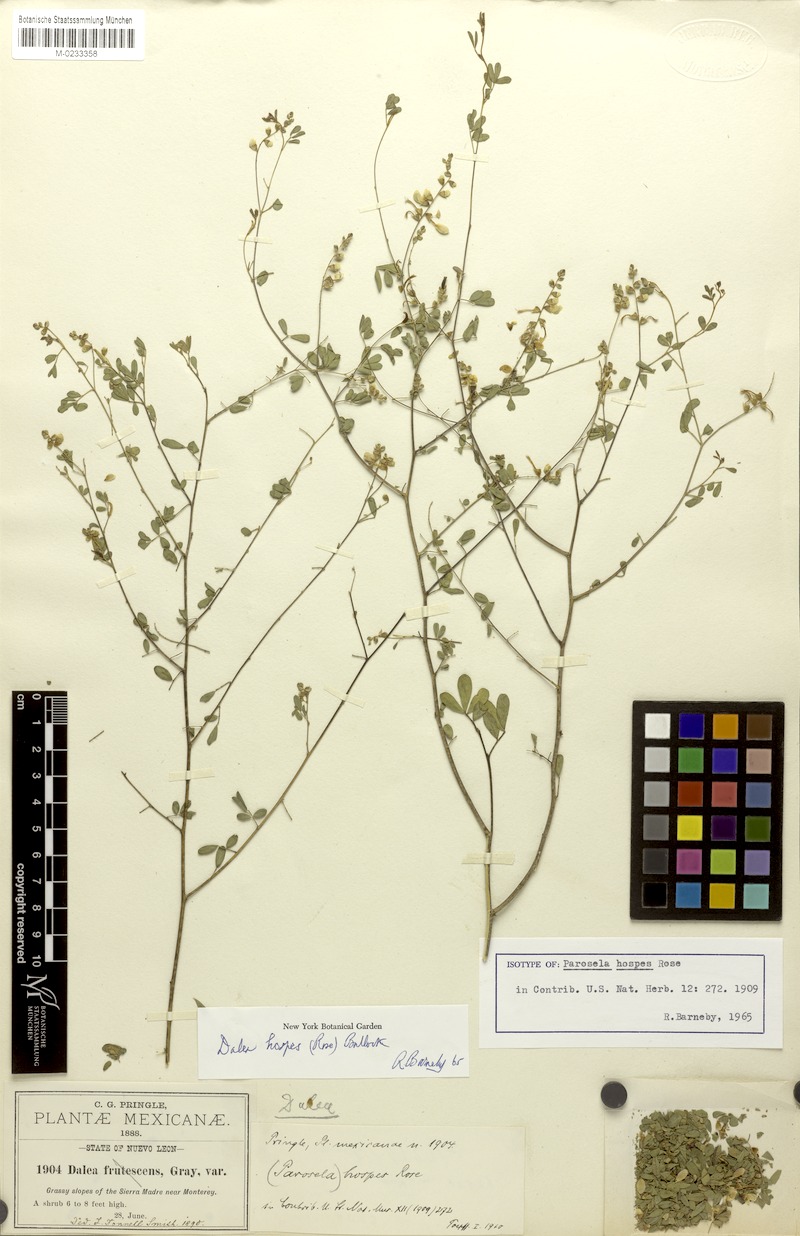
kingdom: Plantae
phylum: Tracheophyta
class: Magnoliopsida
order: Fabales
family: Fabaceae
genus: Dalea
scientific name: Dalea hospes
